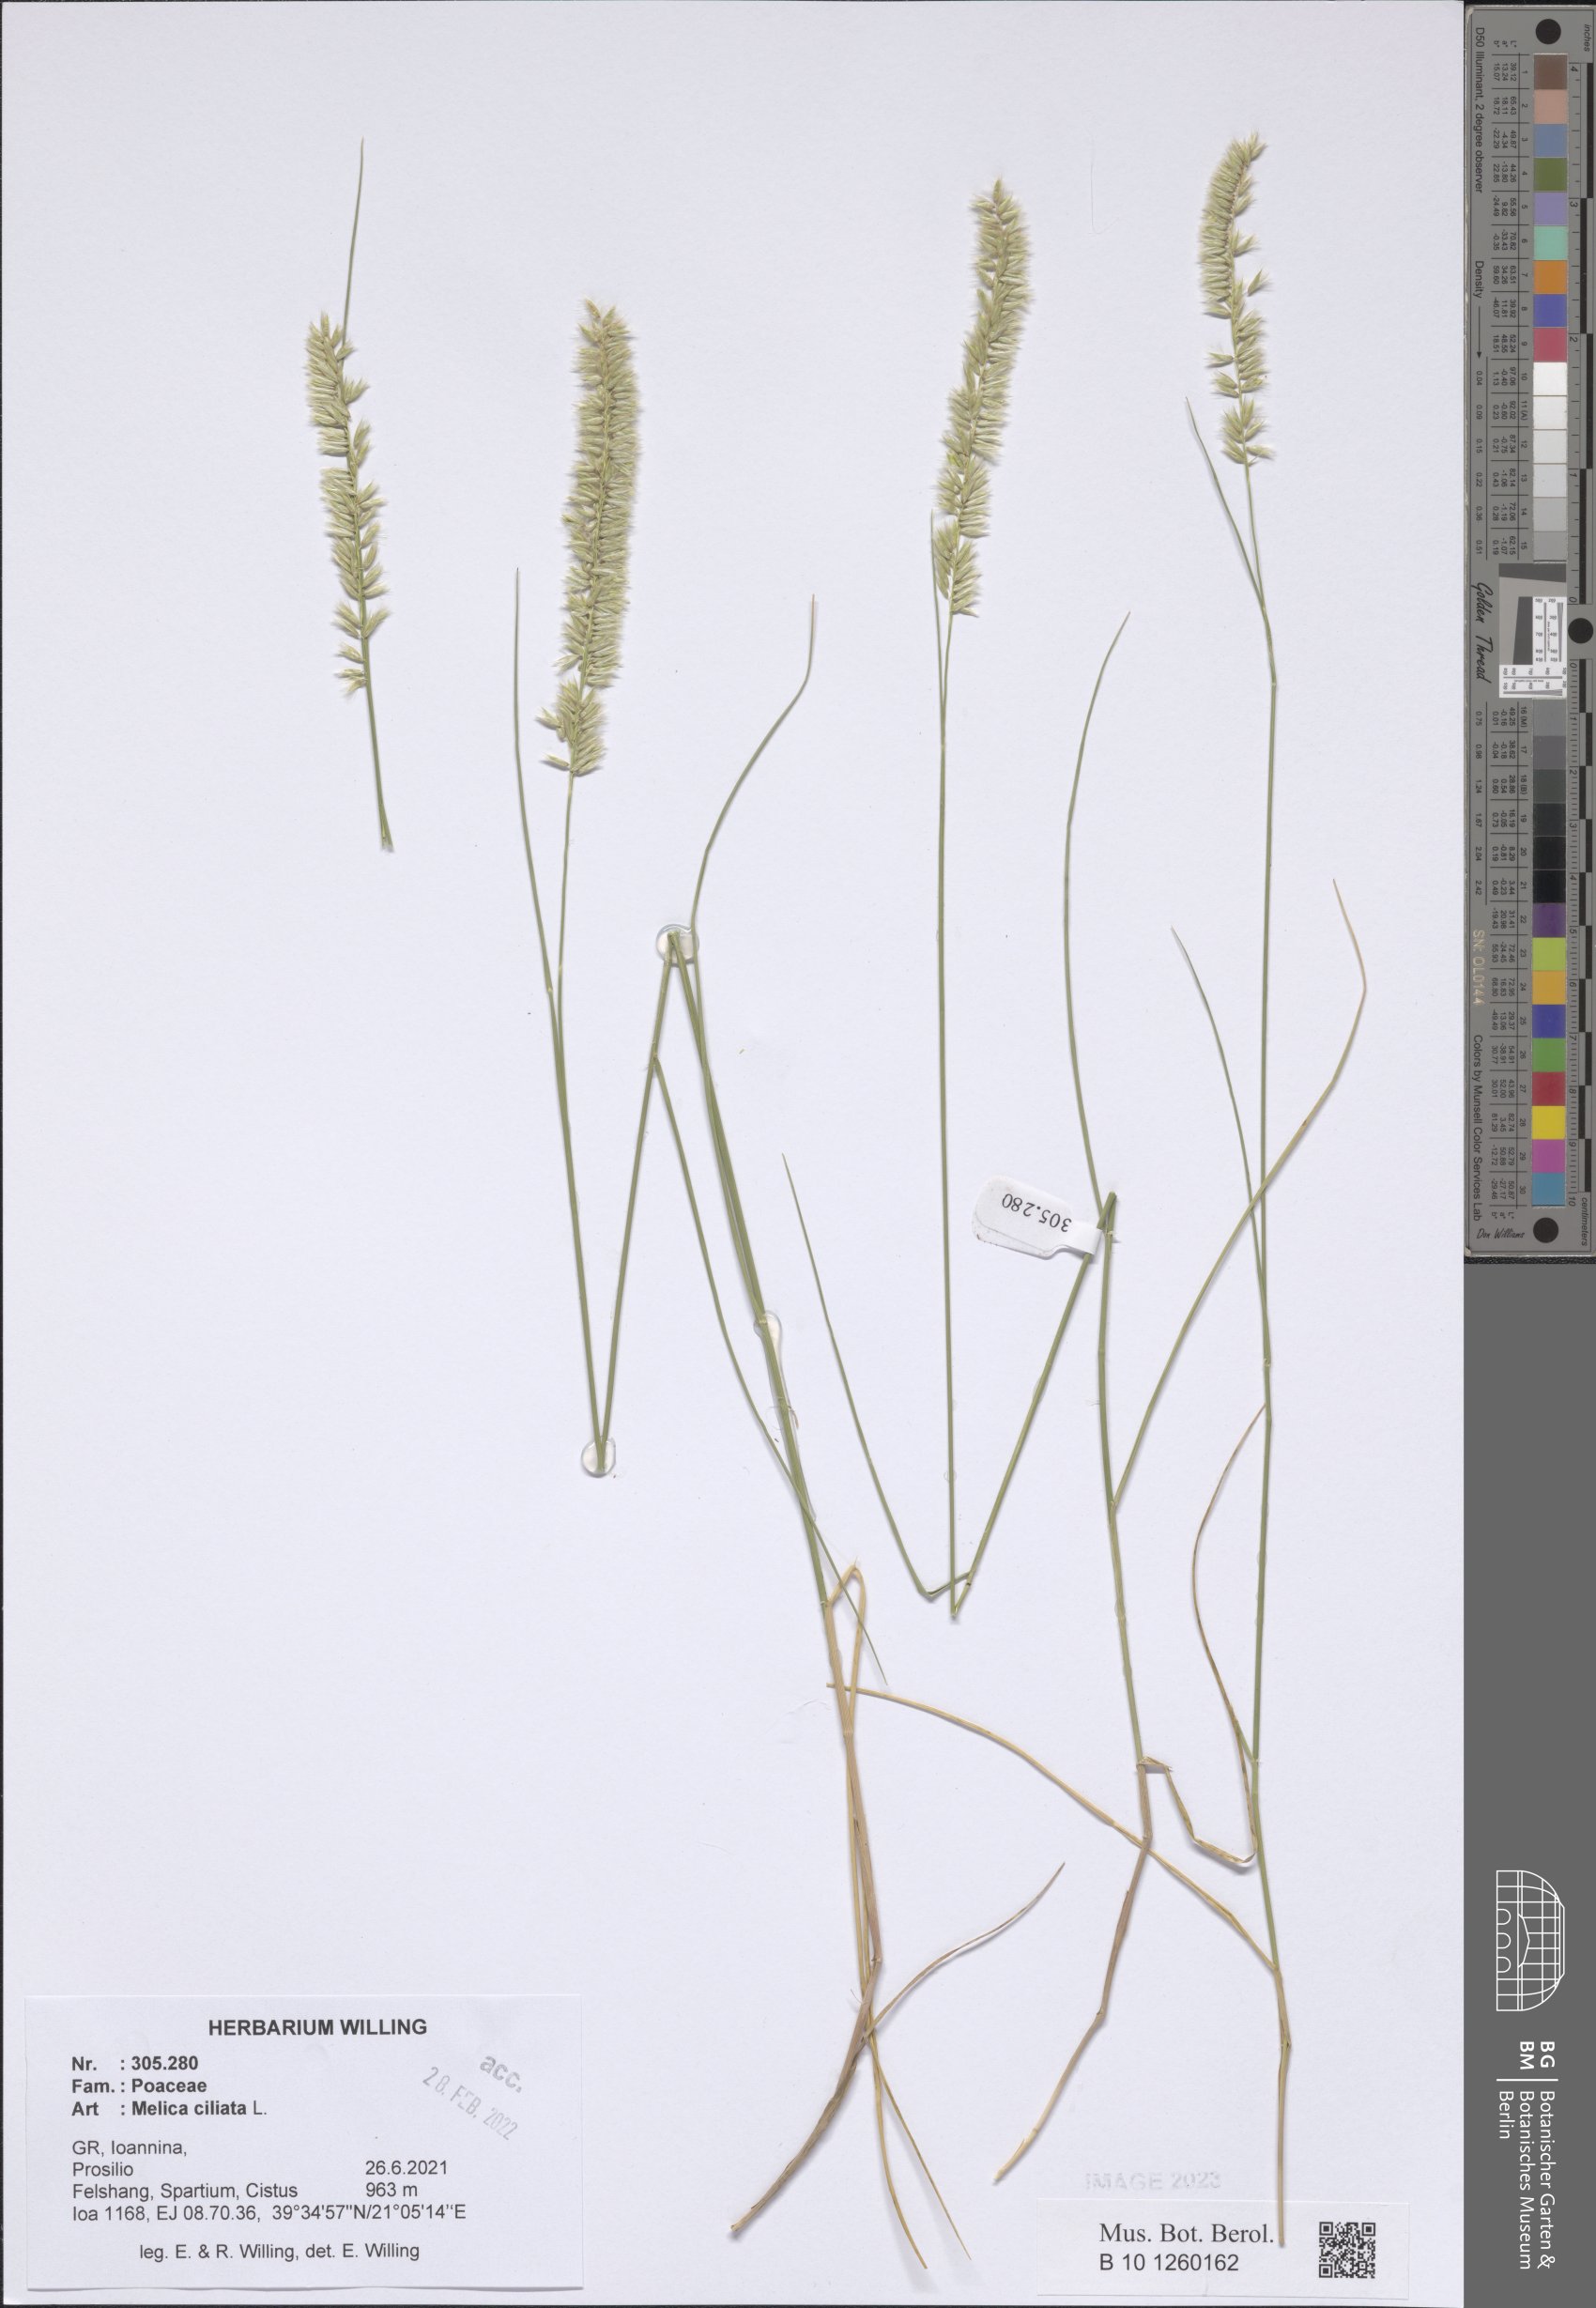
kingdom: Plantae
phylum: Tracheophyta
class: Liliopsida
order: Poales
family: Poaceae
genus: Melica
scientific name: Melica ciliata
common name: Hairy melicgrass
